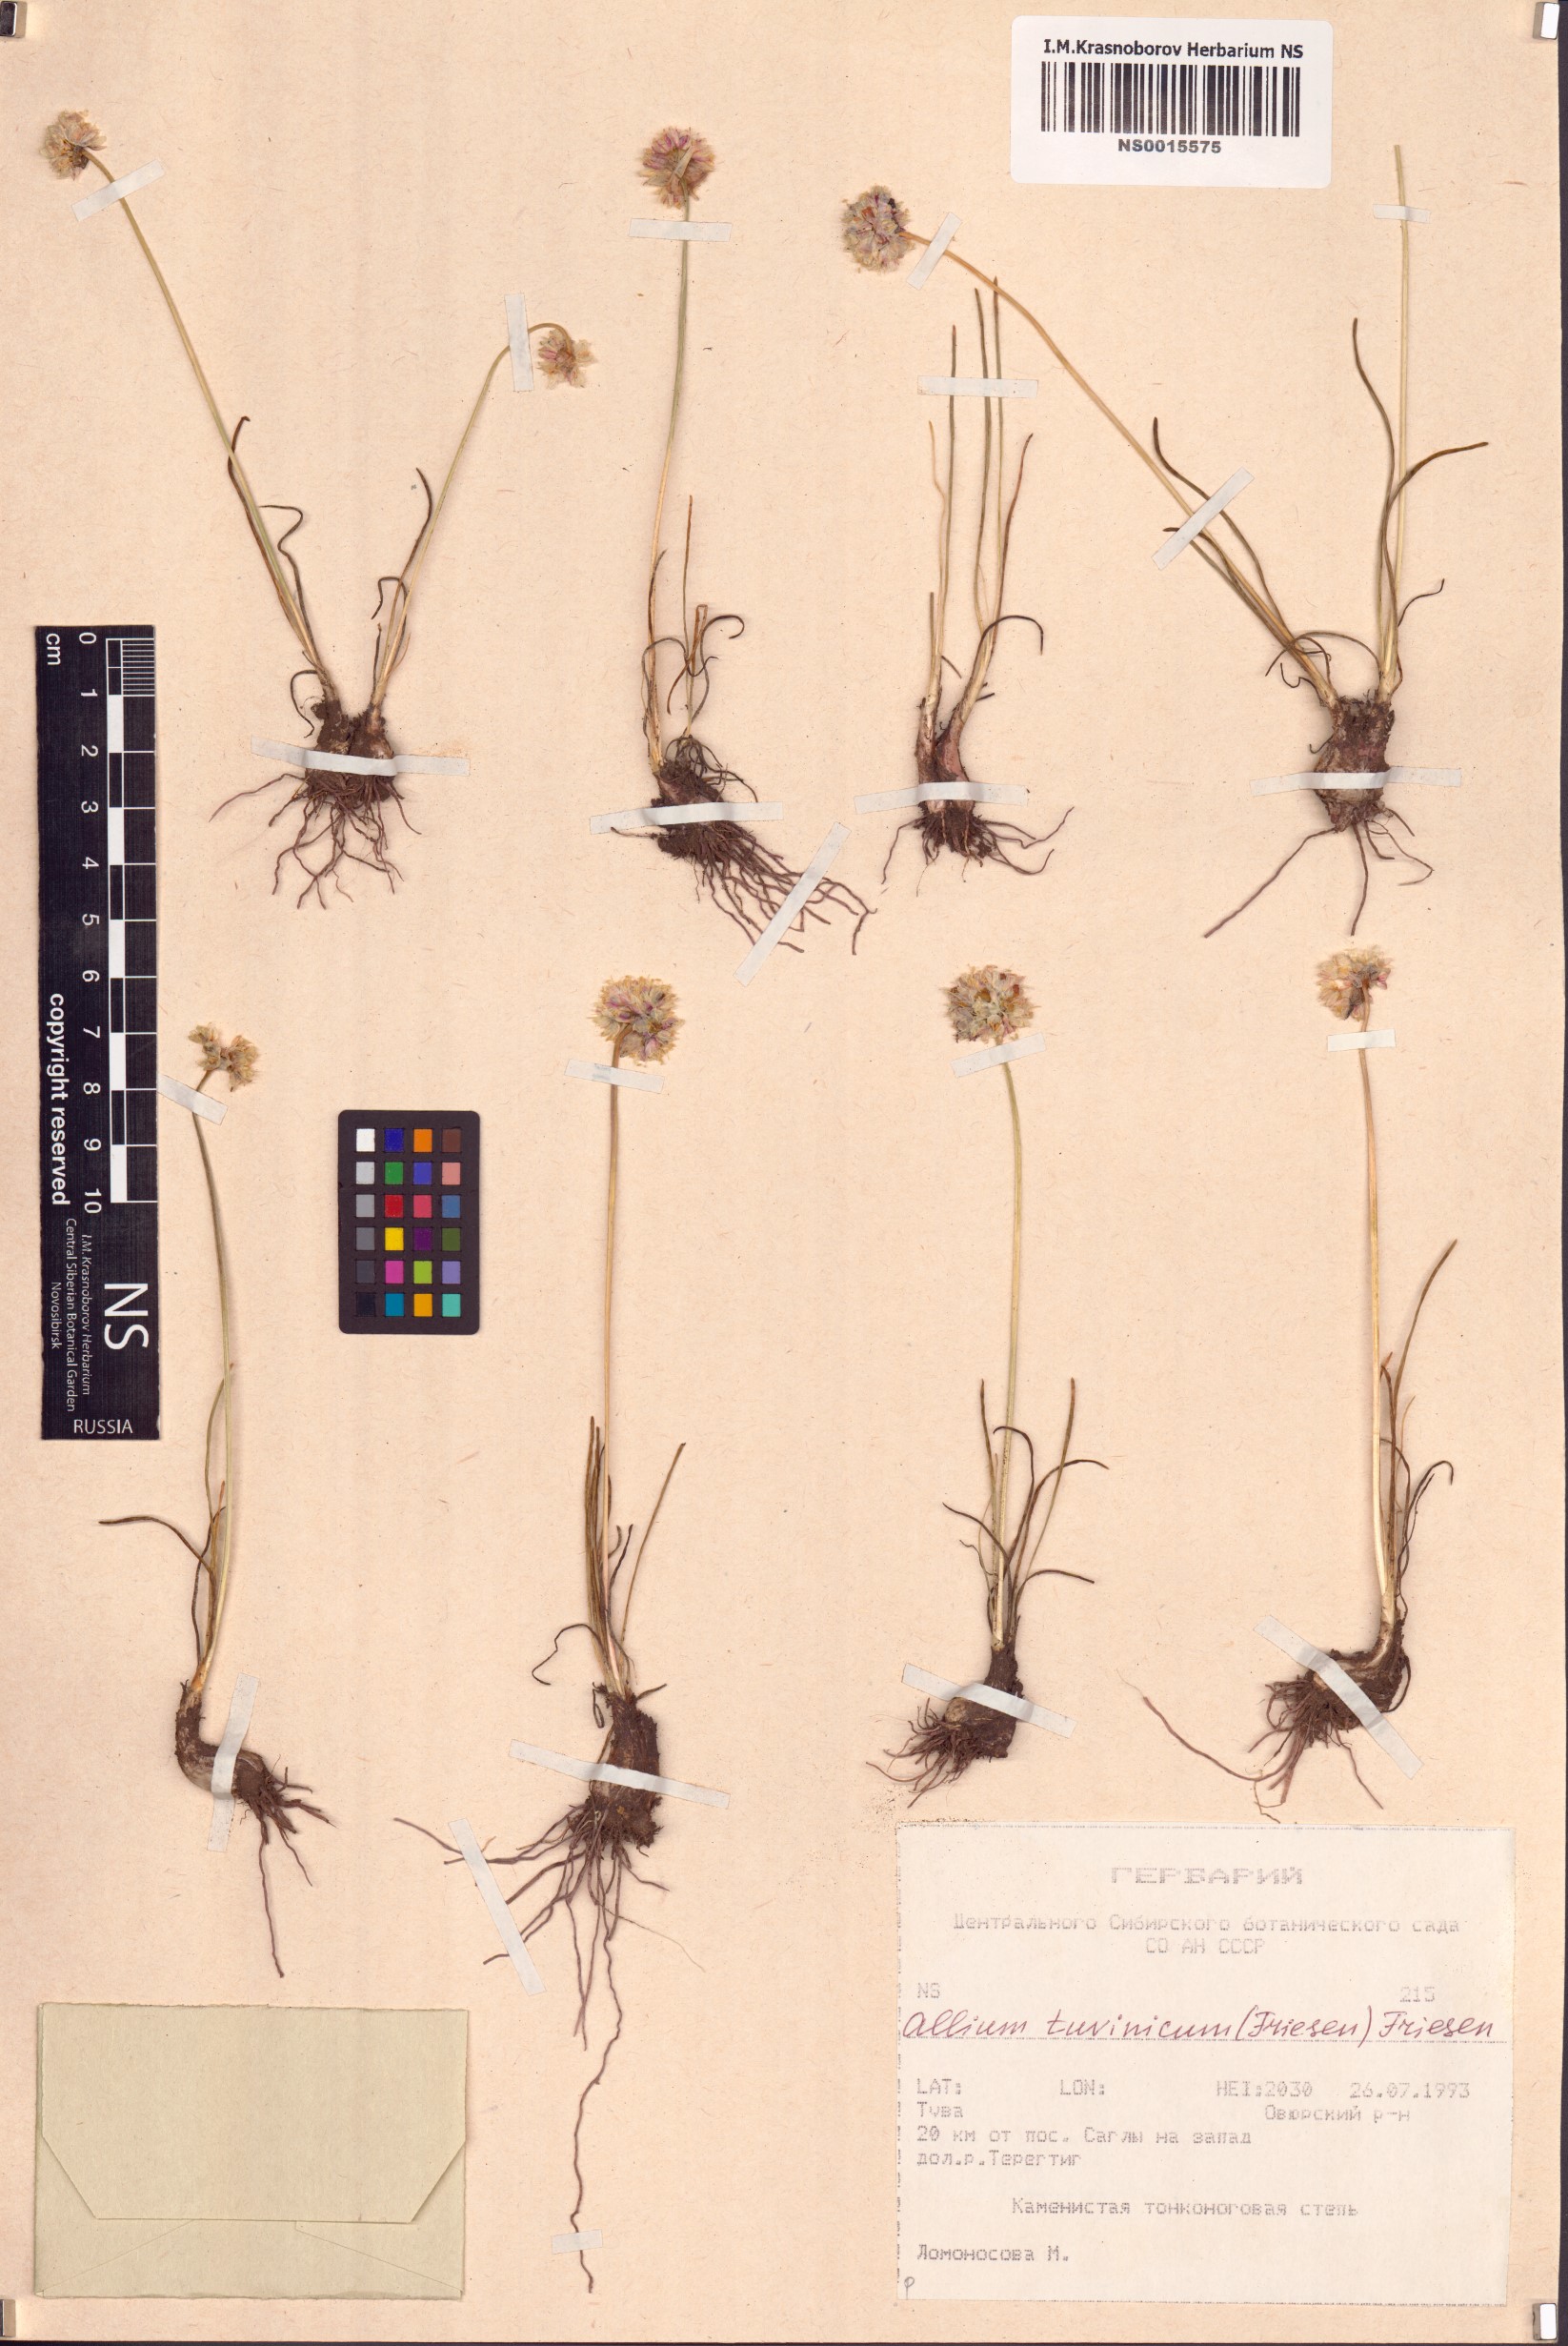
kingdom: Plantae
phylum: Tracheophyta
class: Liliopsida
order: Asparagales
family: Amaryllidaceae
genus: Allium
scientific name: Allium tuvinicum
